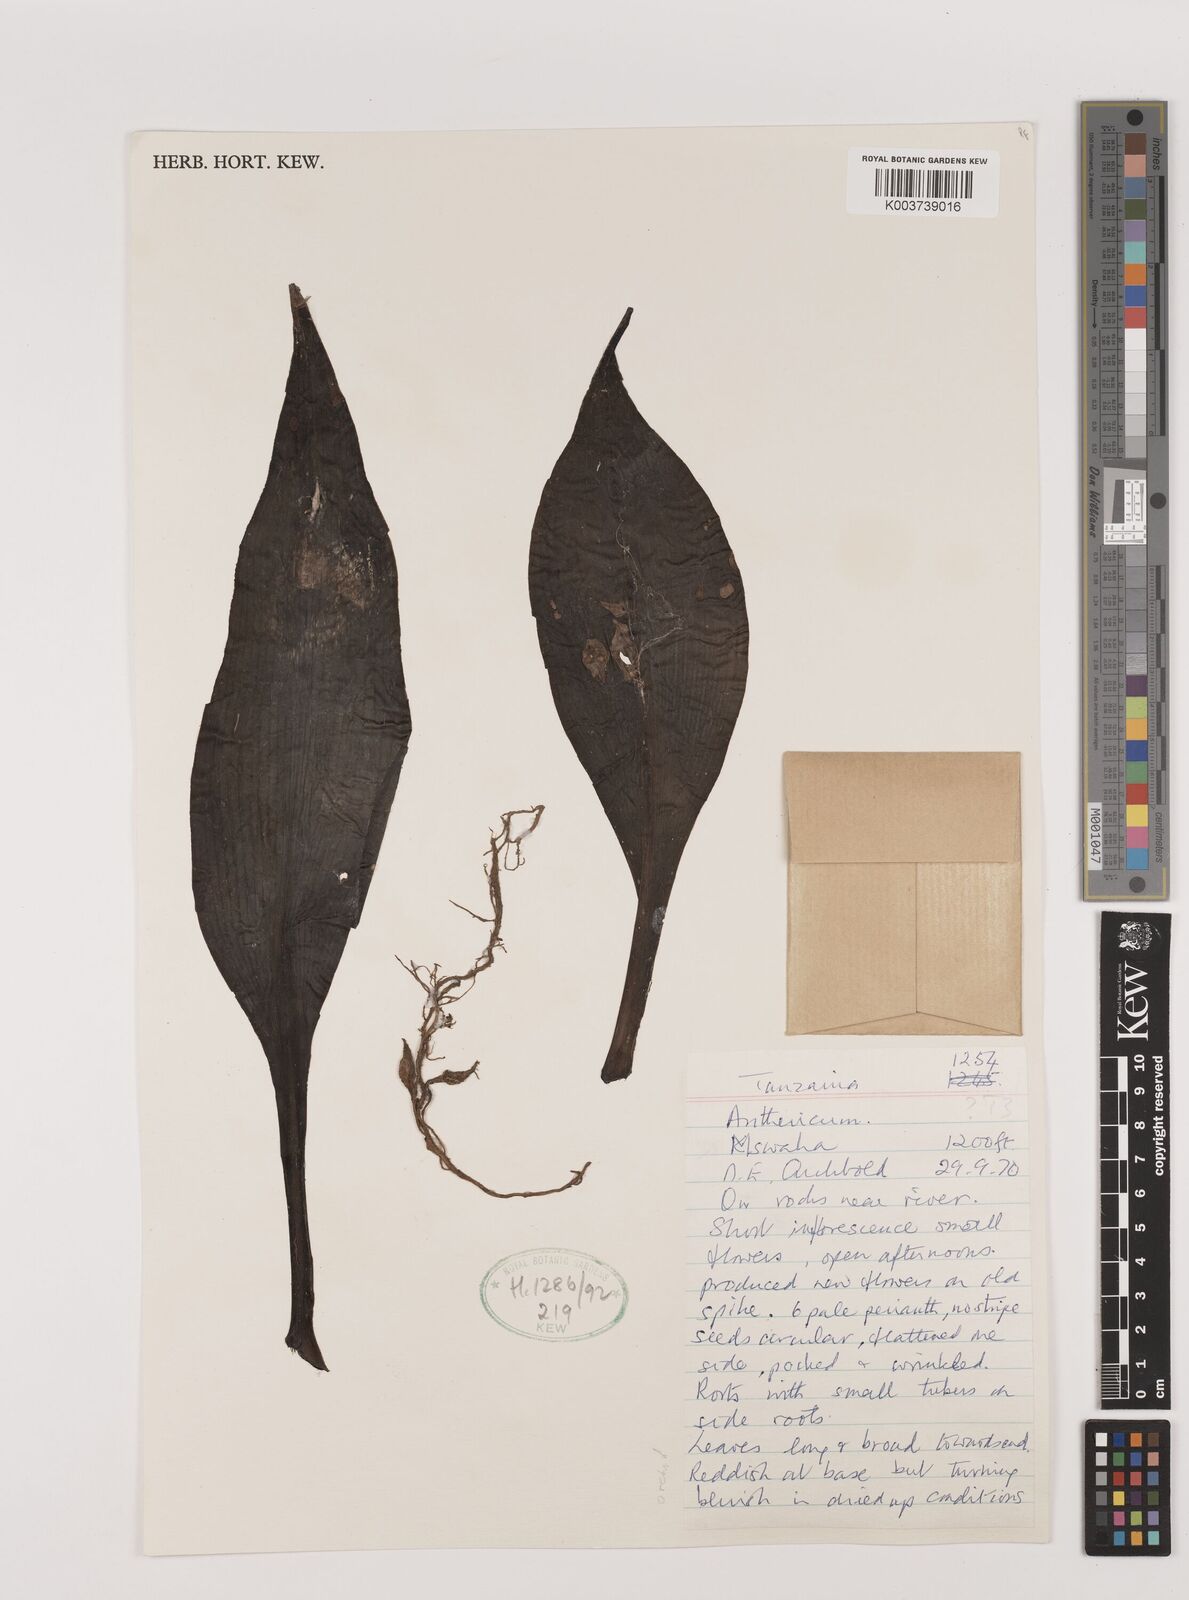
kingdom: Plantae
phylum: Tracheophyta
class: Liliopsida
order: Asparagales
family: Asparagaceae
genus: Chlorophytum
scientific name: Chlorophytum filipendulum
